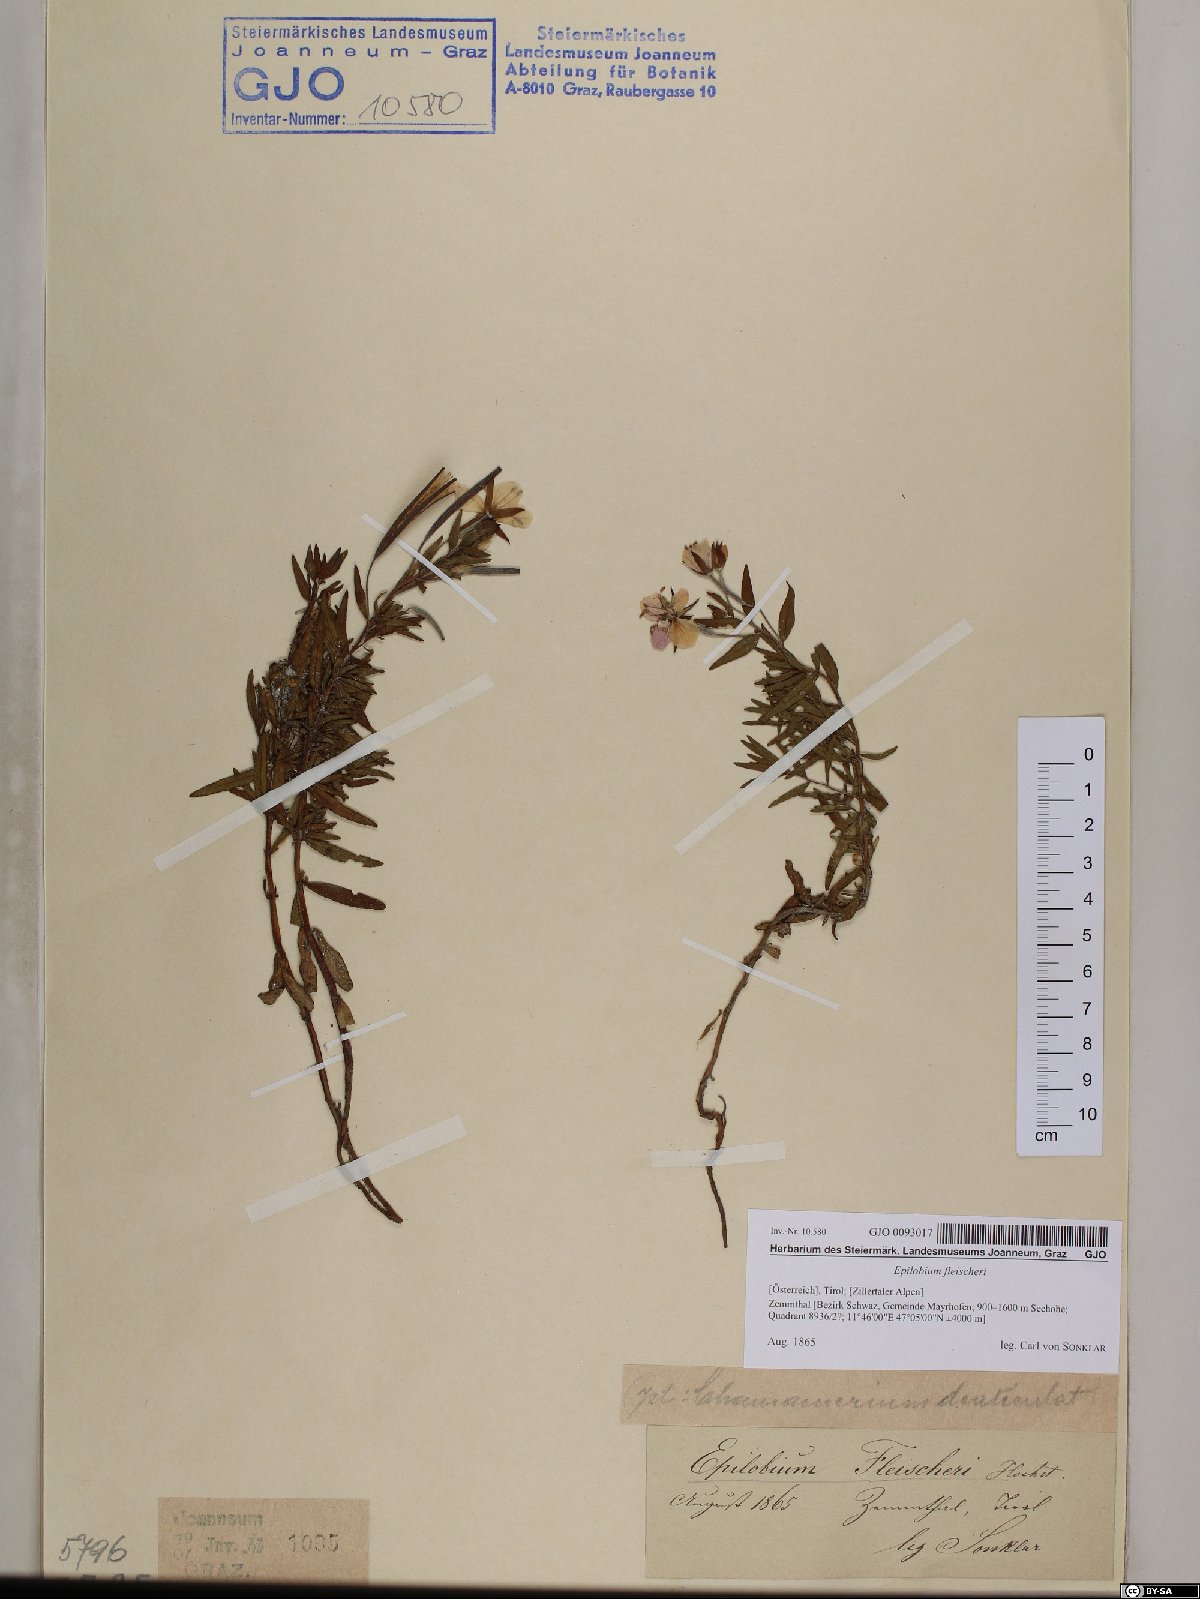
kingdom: Plantae
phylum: Tracheophyta
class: Magnoliopsida
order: Myrtales
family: Onagraceae
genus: Chamaenerion
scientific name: Chamaenerion fleischeri
